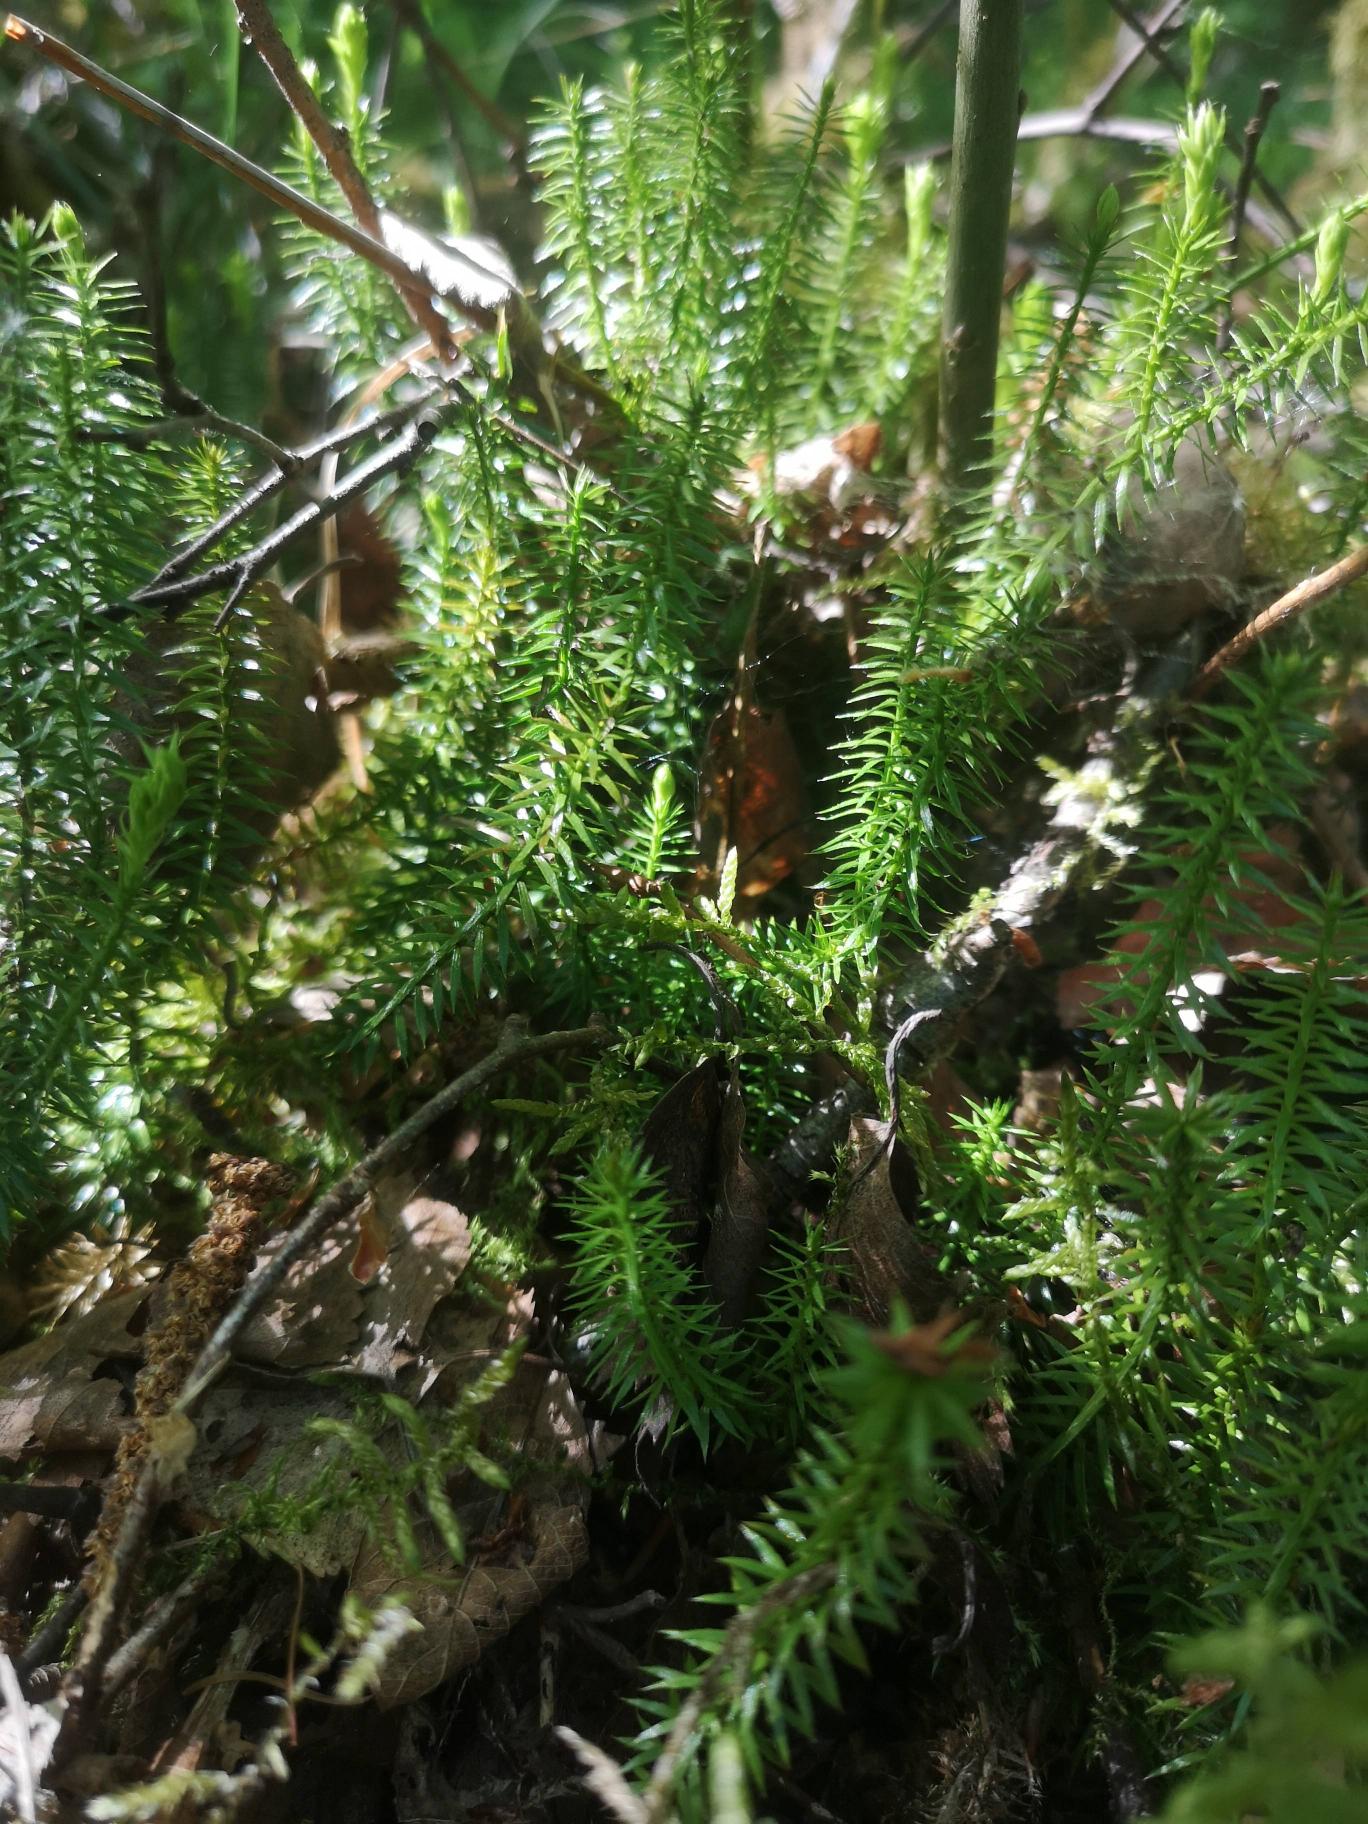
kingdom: Plantae
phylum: Tracheophyta
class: Lycopodiopsida
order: Lycopodiales
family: Lycopodiaceae
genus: Spinulum
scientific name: Spinulum annotinum
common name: Femradet ulvefod
